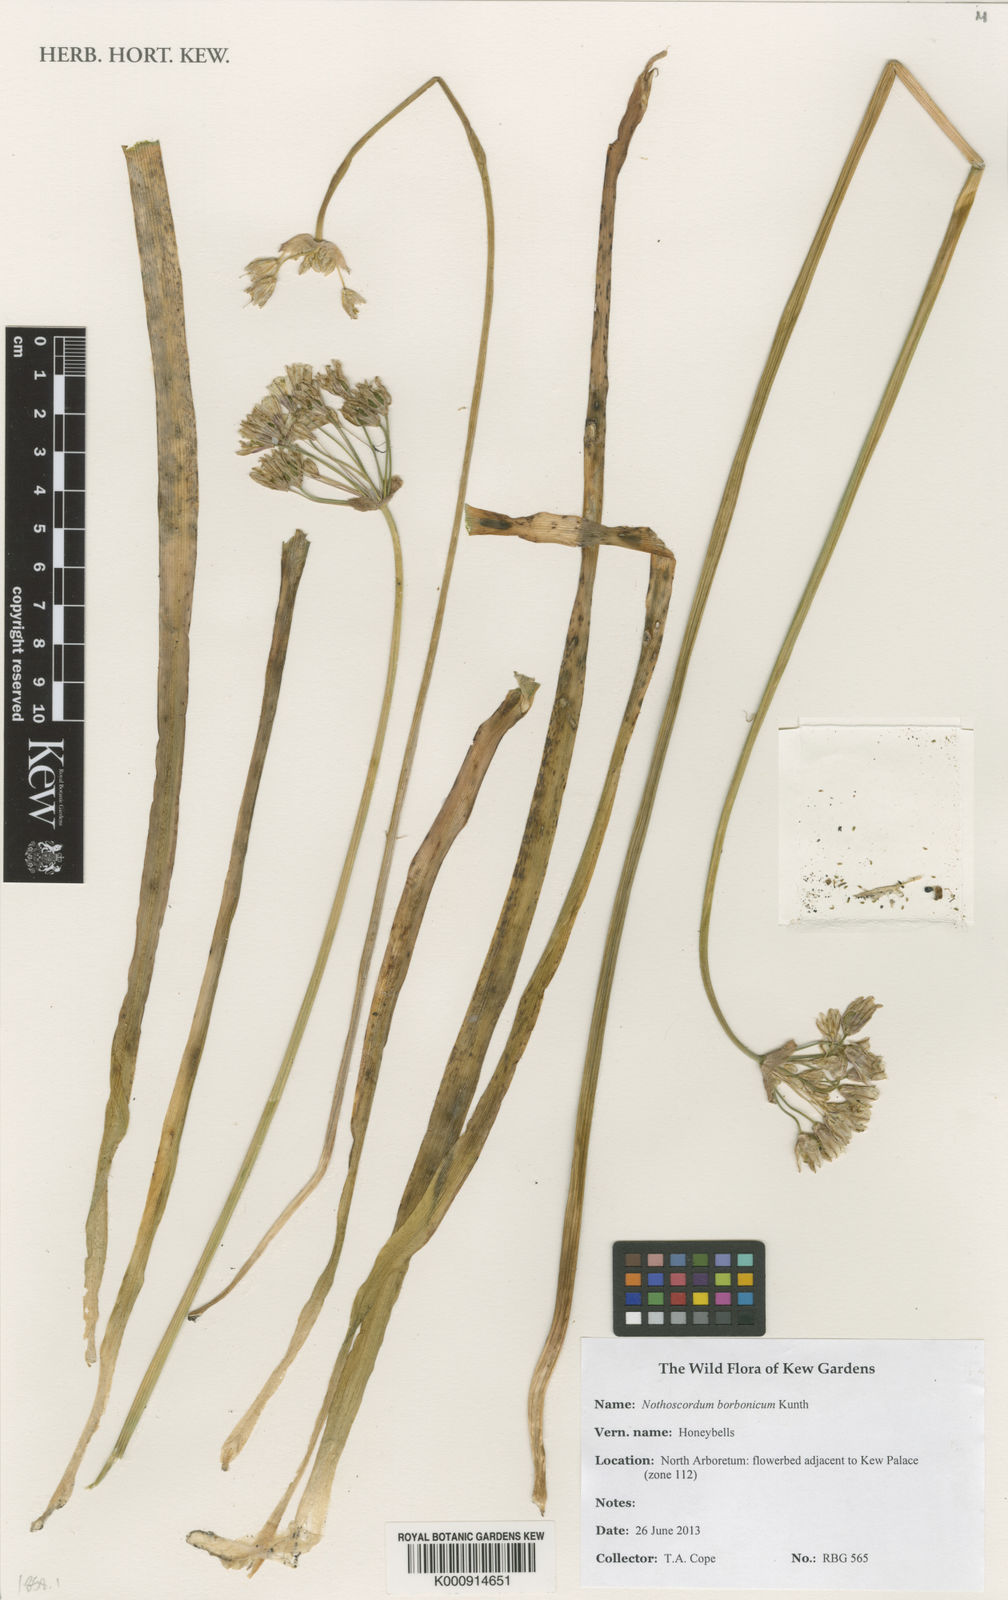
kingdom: Plantae
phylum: Tracheophyta
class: Liliopsida
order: Asparagales
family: Amaryllidaceae
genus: Nothoscordum
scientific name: Nothoscordum borbonicum
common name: Honeybells
